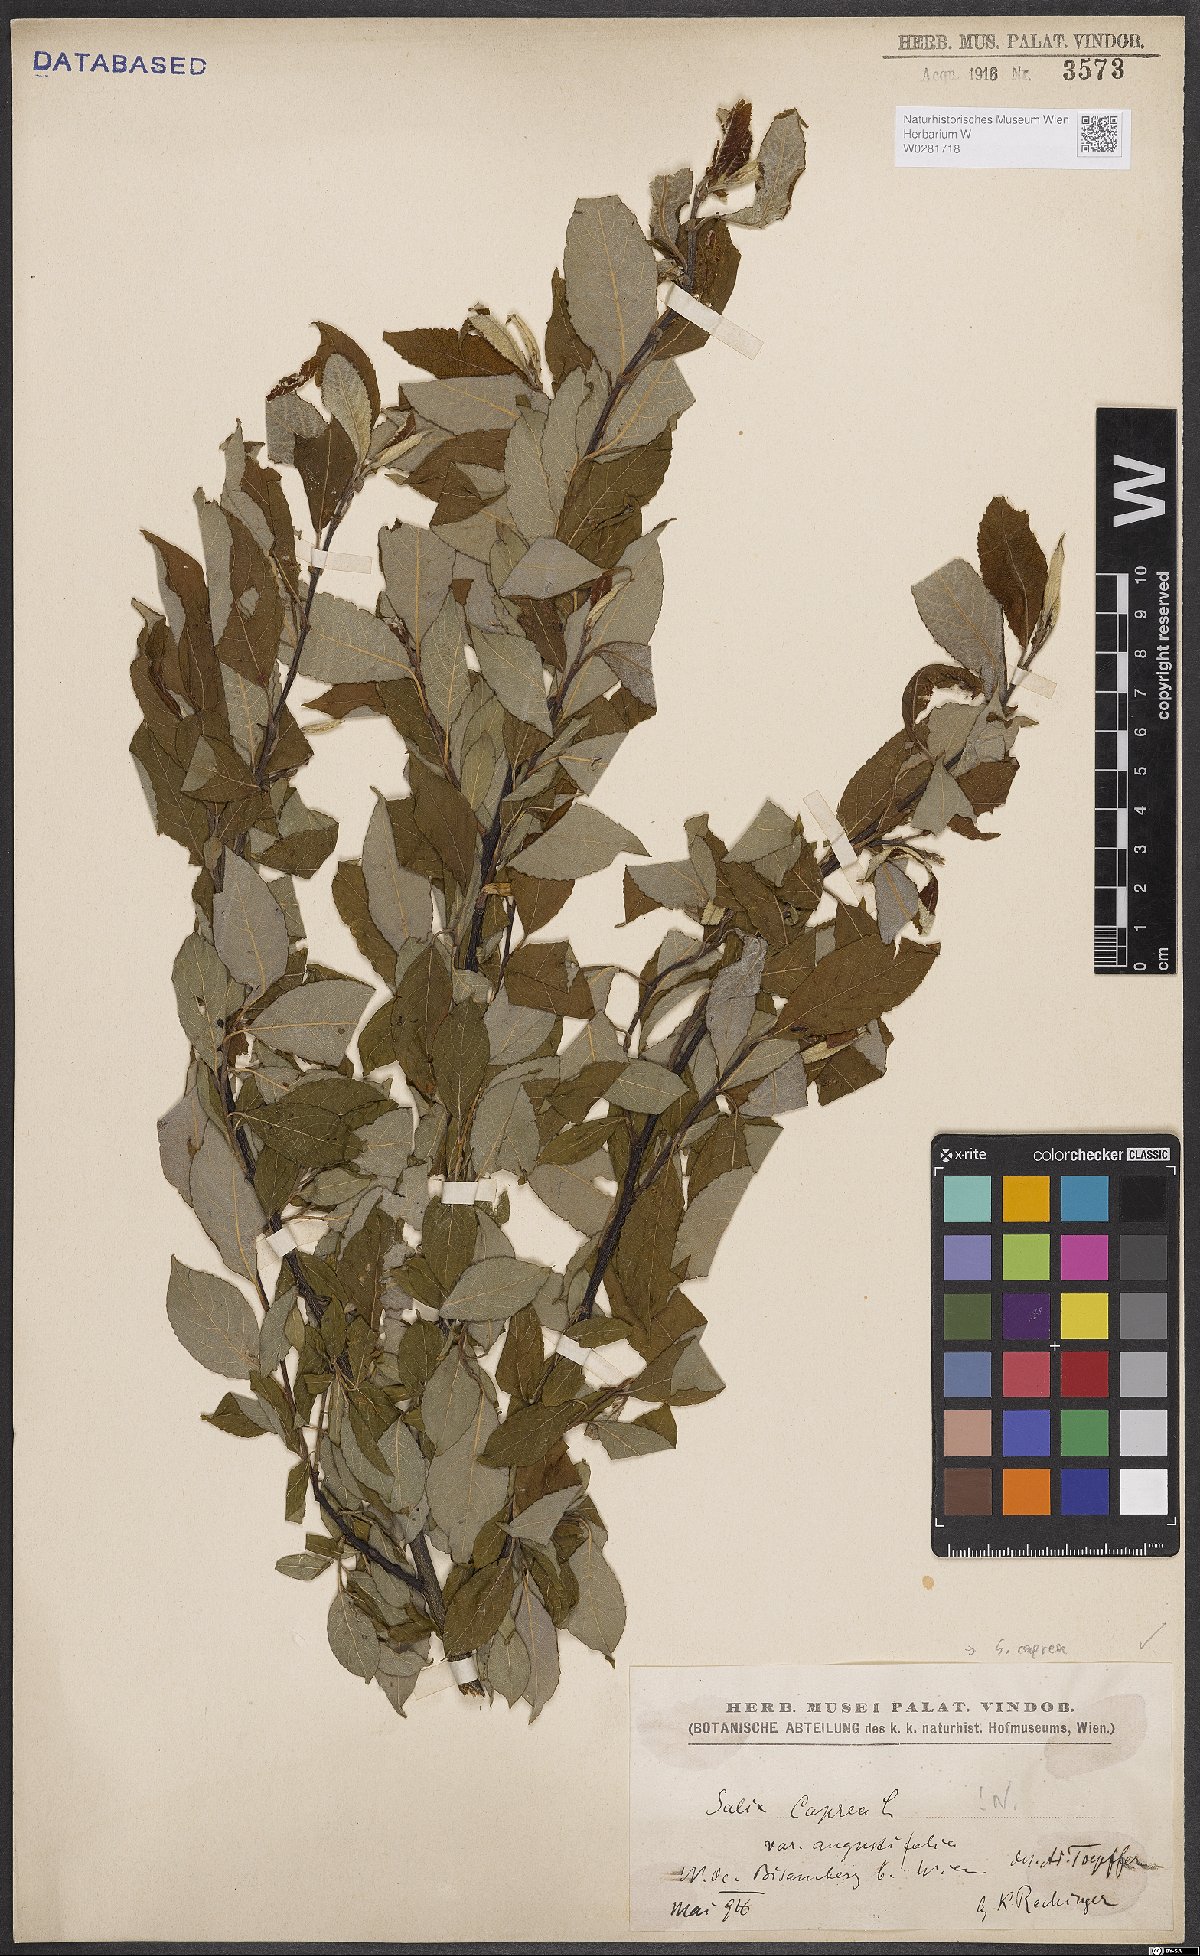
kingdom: Plantae
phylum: Tracheophyta
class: Magnoliopsida
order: Malpighiales
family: Salicaceae
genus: Salix
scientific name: Salix caprea
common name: Goat willow
